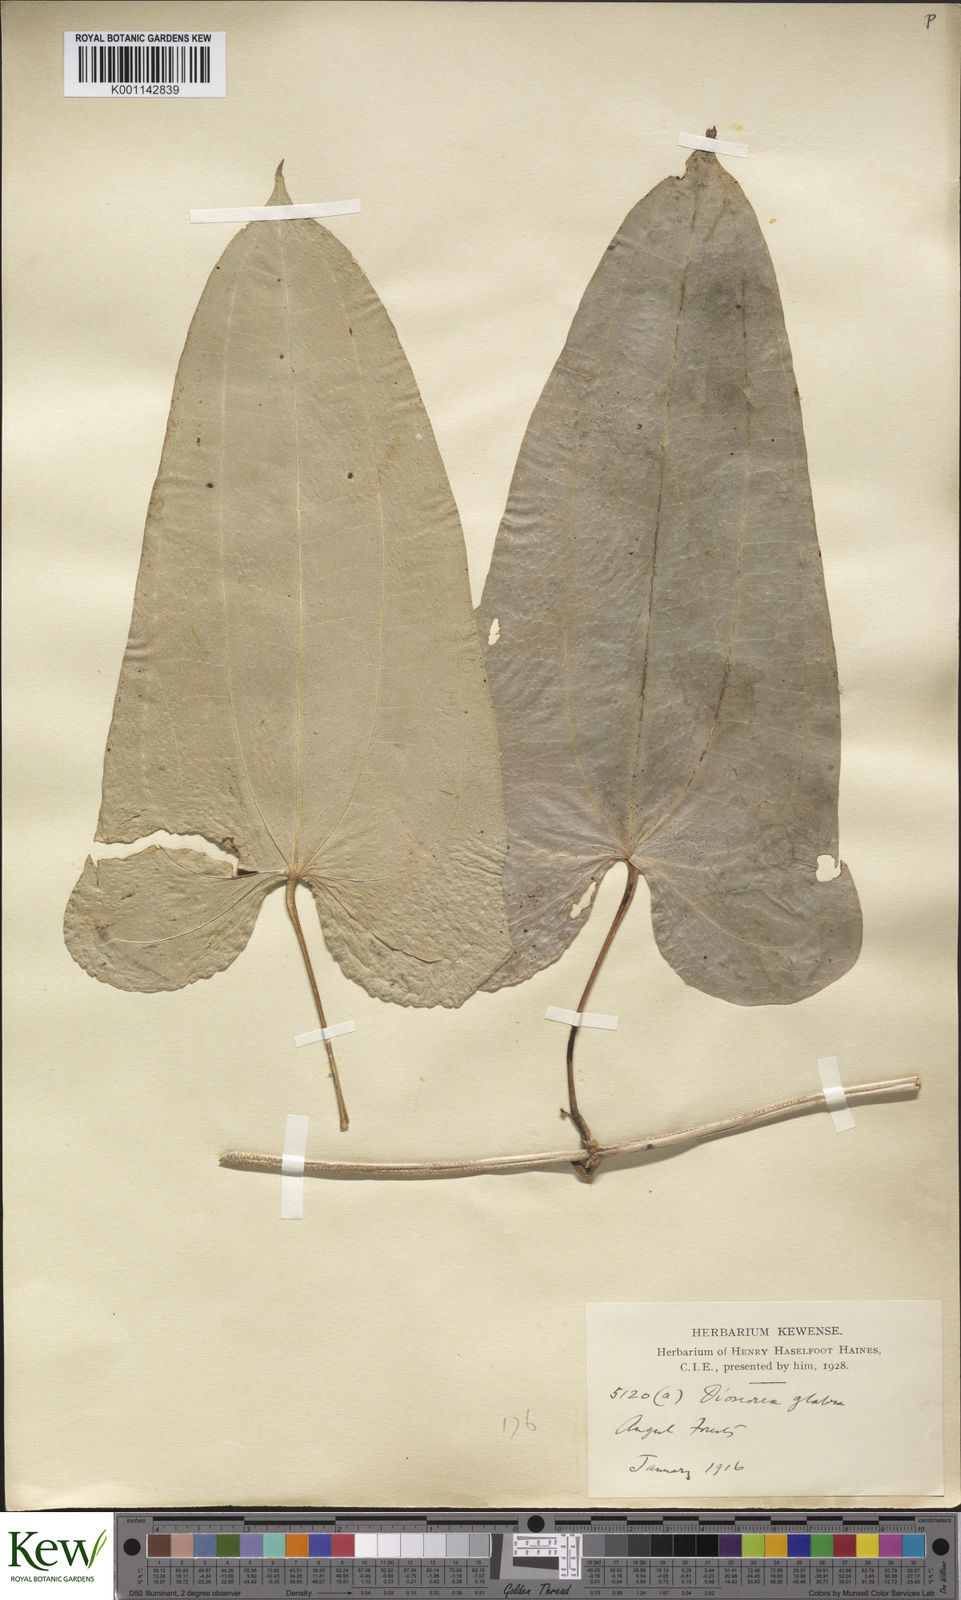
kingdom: Plantae
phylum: Tracheophyta
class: Liliopsida
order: Dioscoreales
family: Dioscoreaceae
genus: Dioscorea
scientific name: Dioscorea glabra
